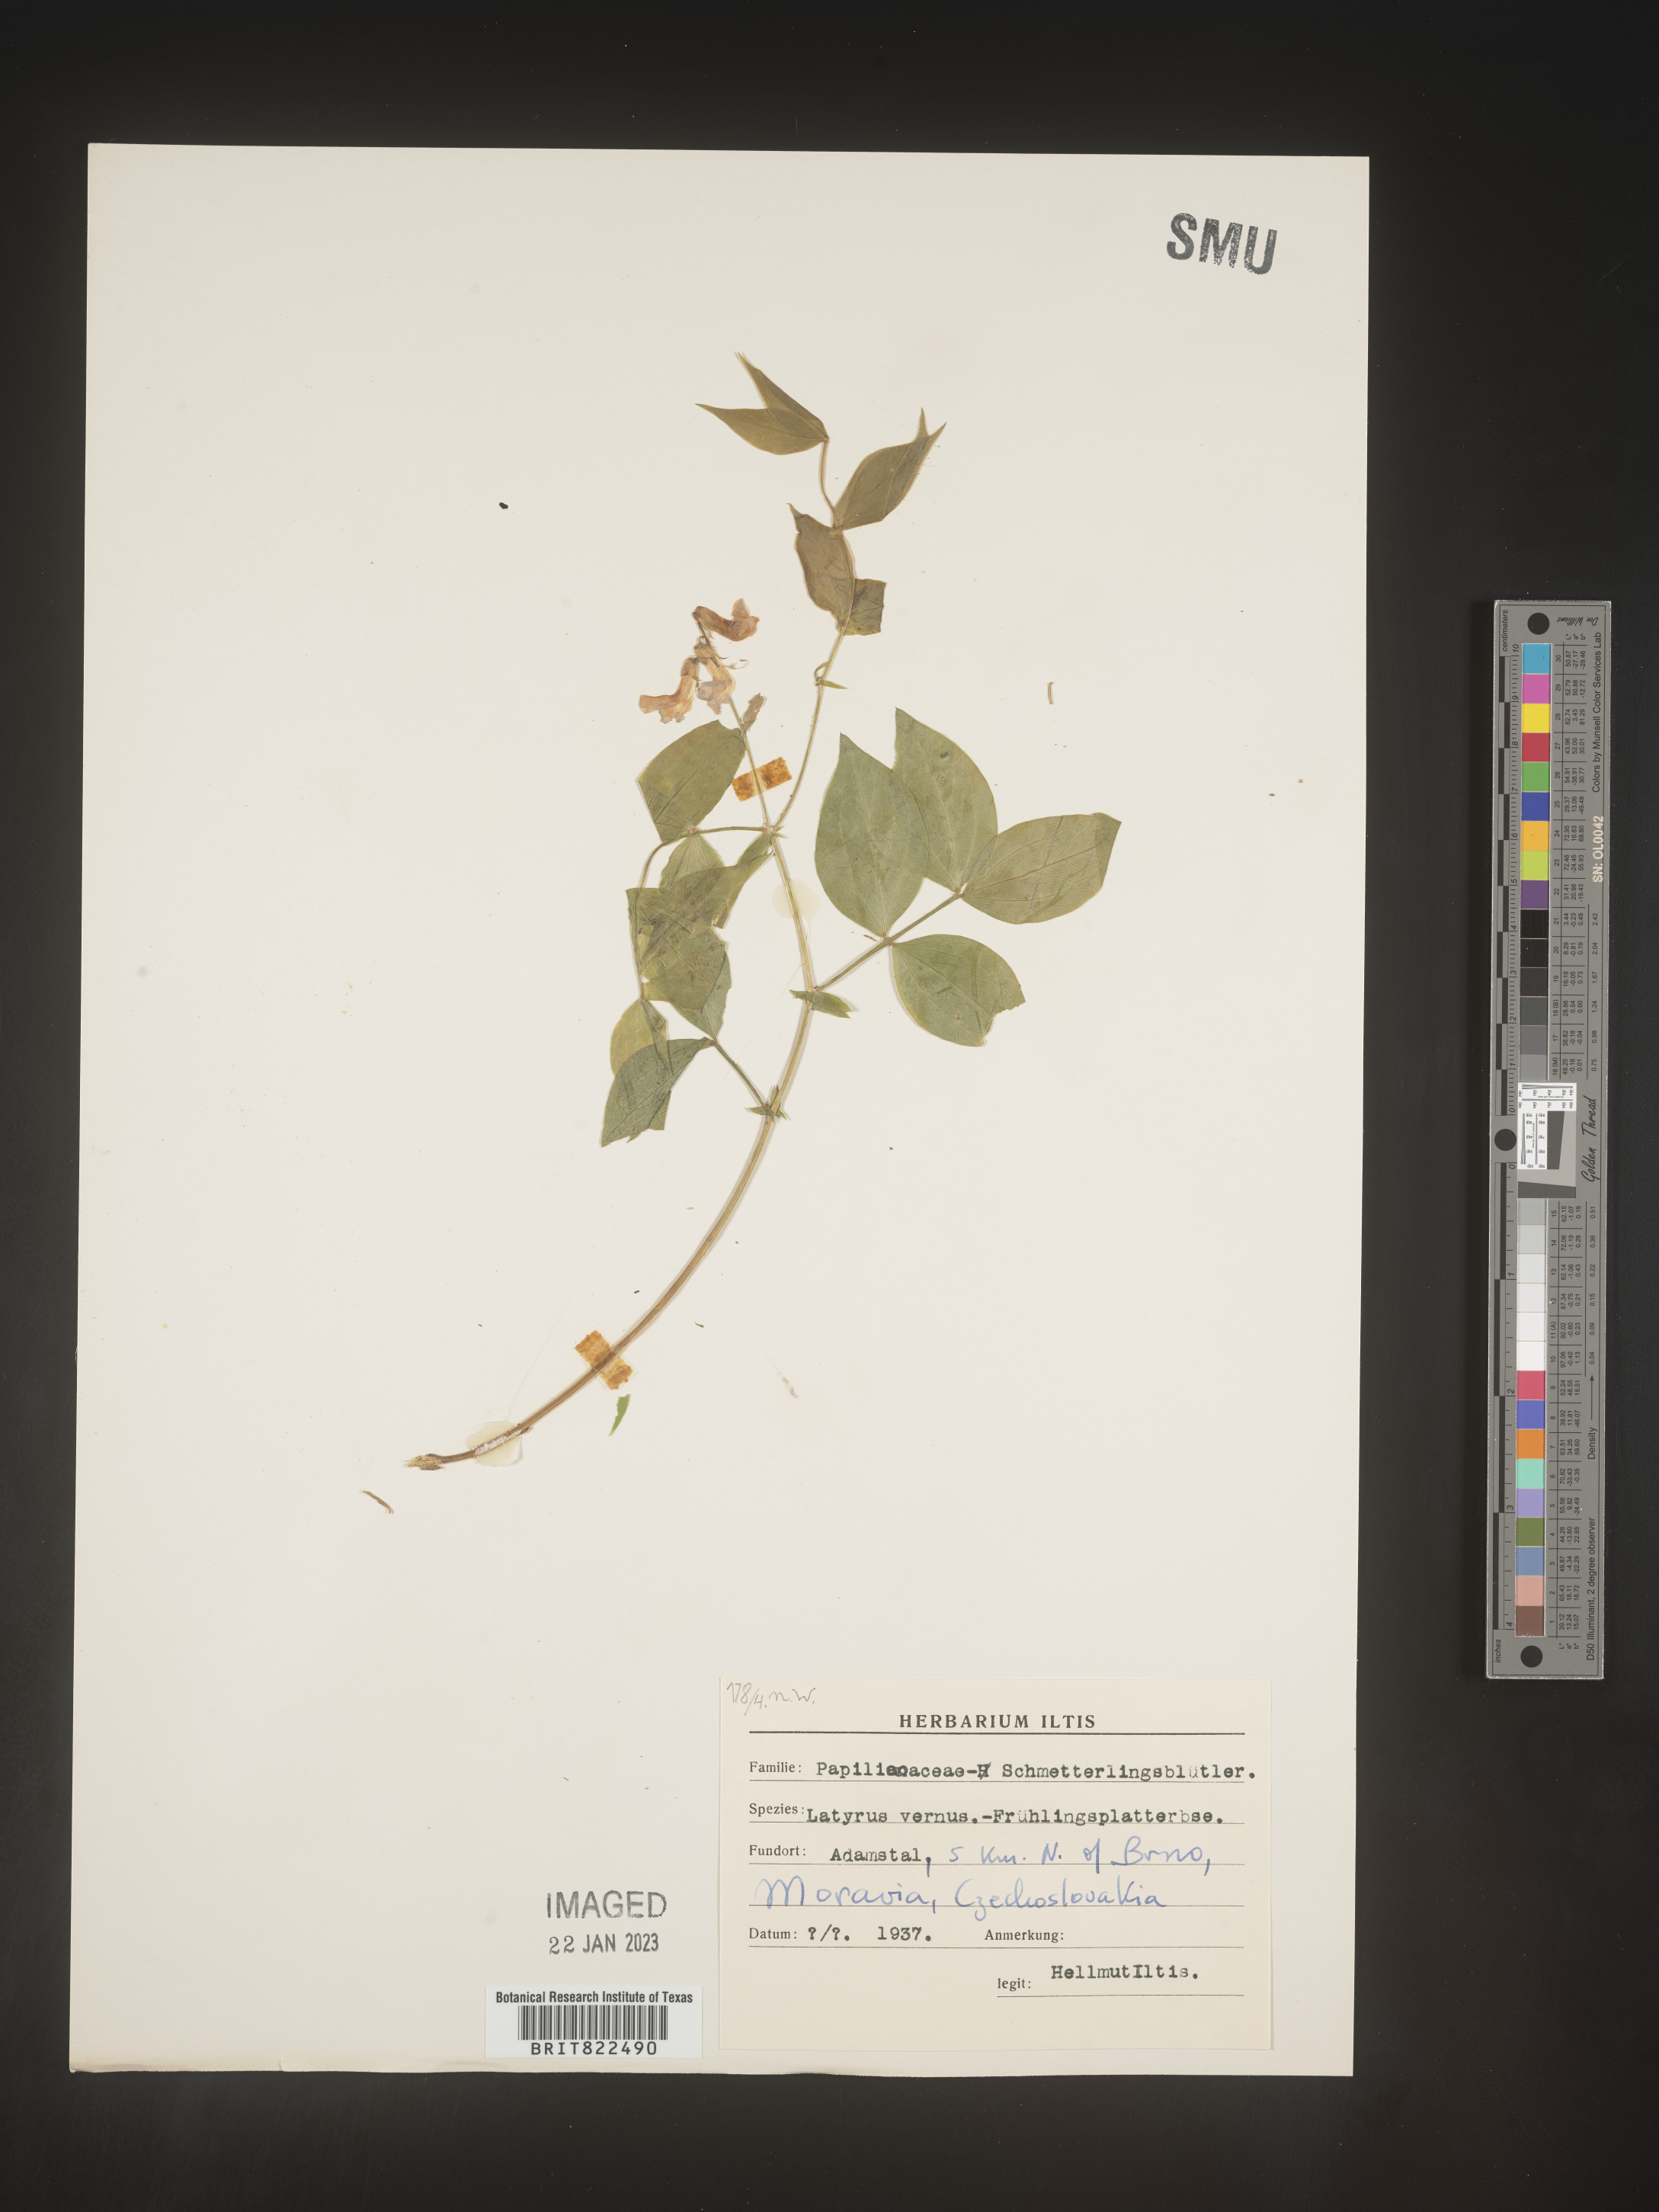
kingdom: Plantae
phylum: Tracheophyta
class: Magnoliopsida
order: Fabales
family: Fabaceae
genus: Lathyrus
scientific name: Lathyrus
